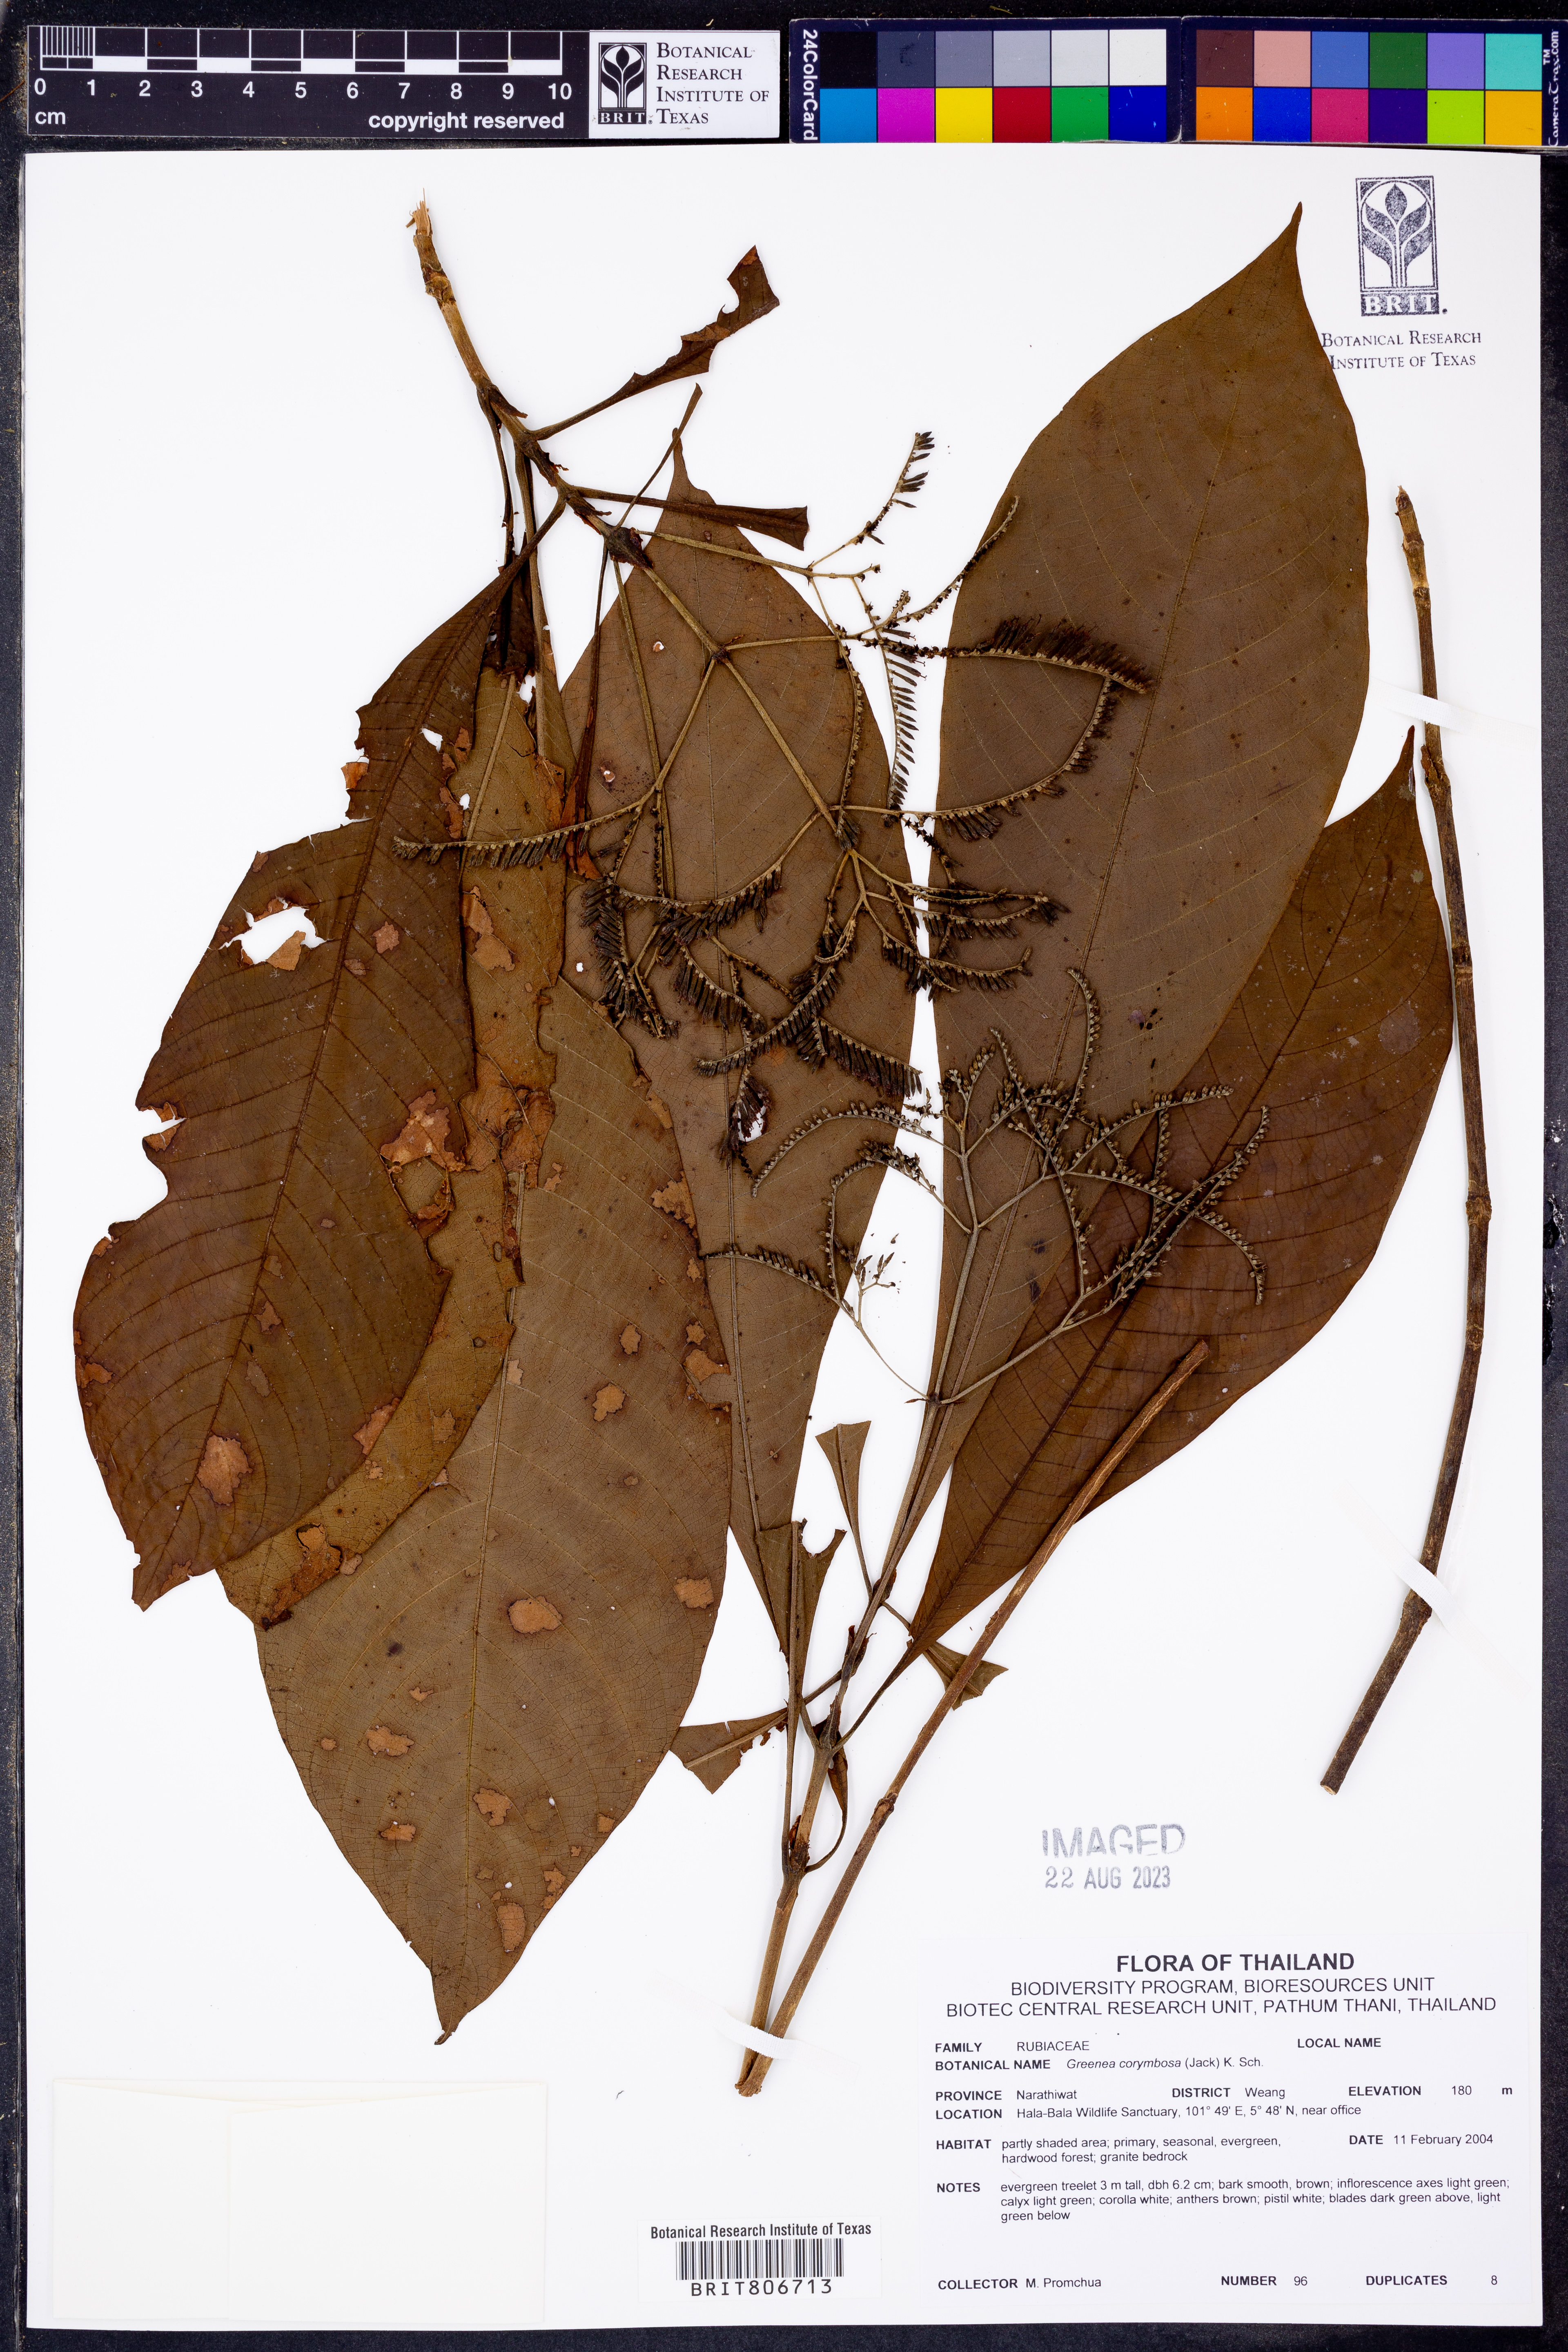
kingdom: Plantae
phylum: Tracheophyta
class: Magnoliopsida
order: Gentianales
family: Rubiaceae
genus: Greenea
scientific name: Greenea corymbosa
